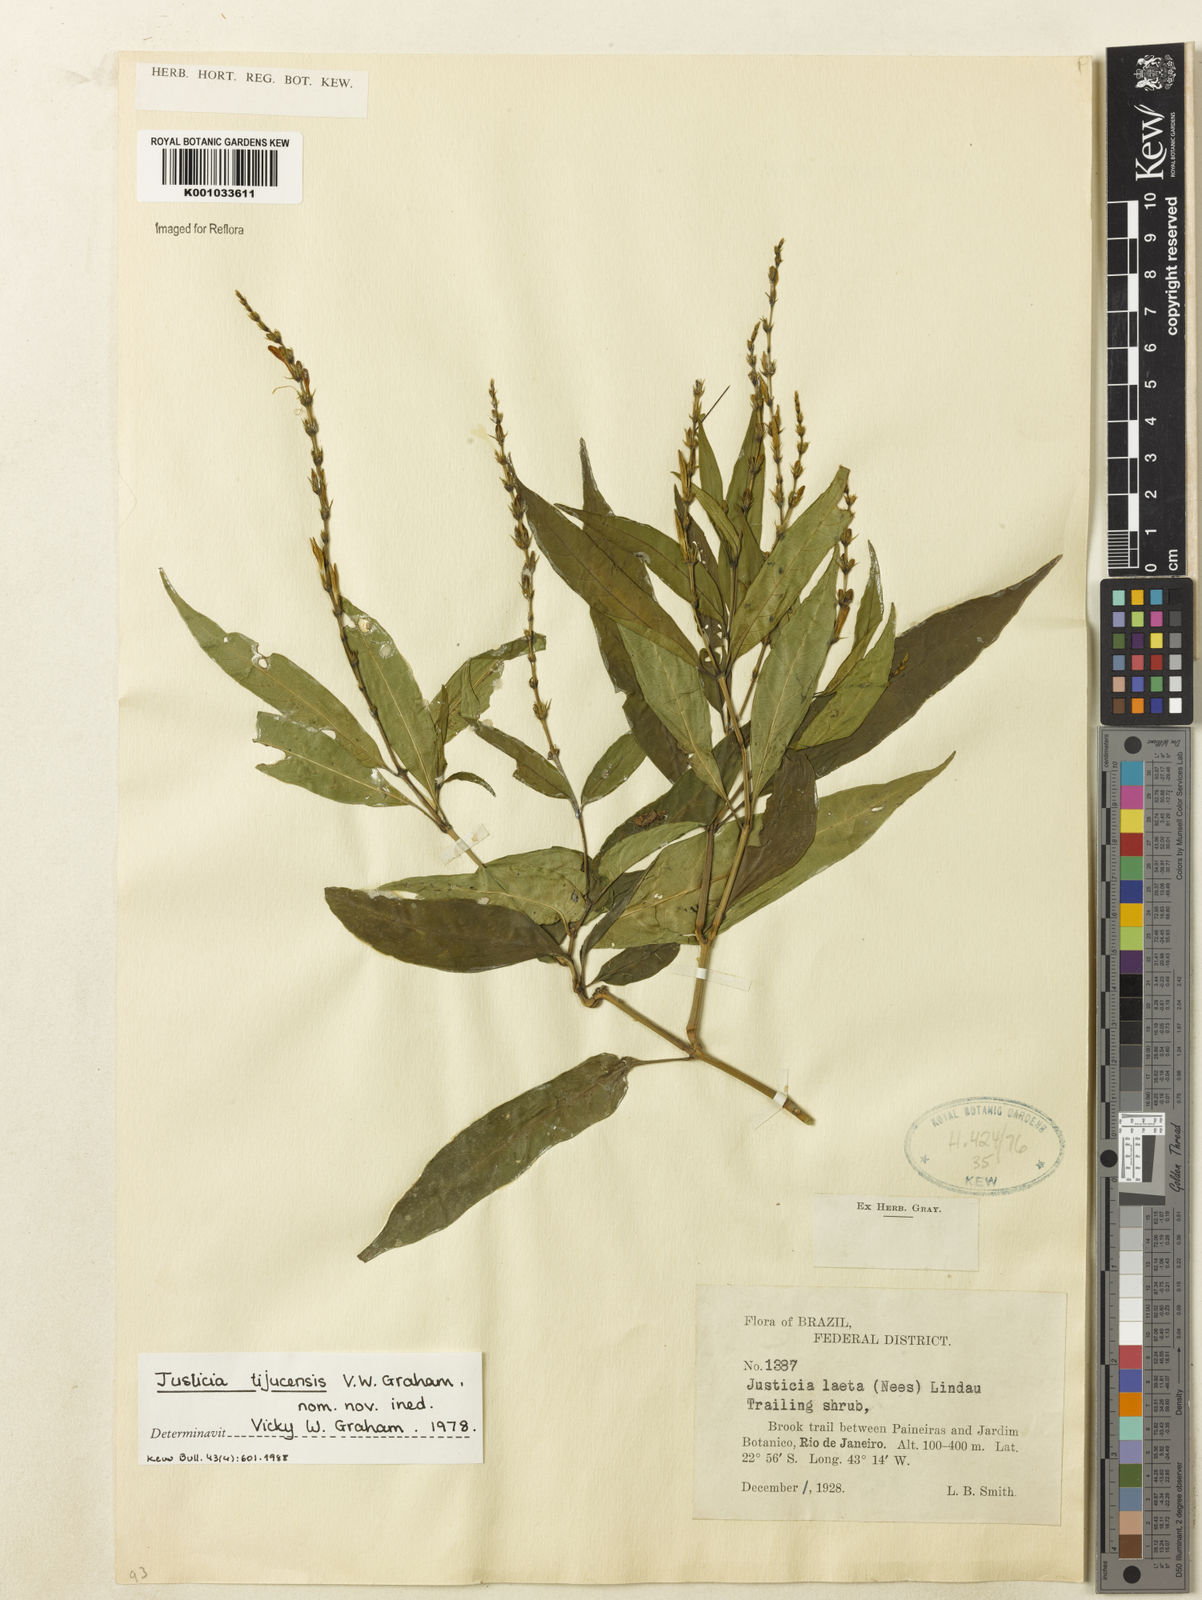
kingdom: Plantae
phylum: Tracheophyta
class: Magnoliopsida
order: Lamiales
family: Acanthaceae
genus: Dianthera
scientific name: Dianthera laeta
